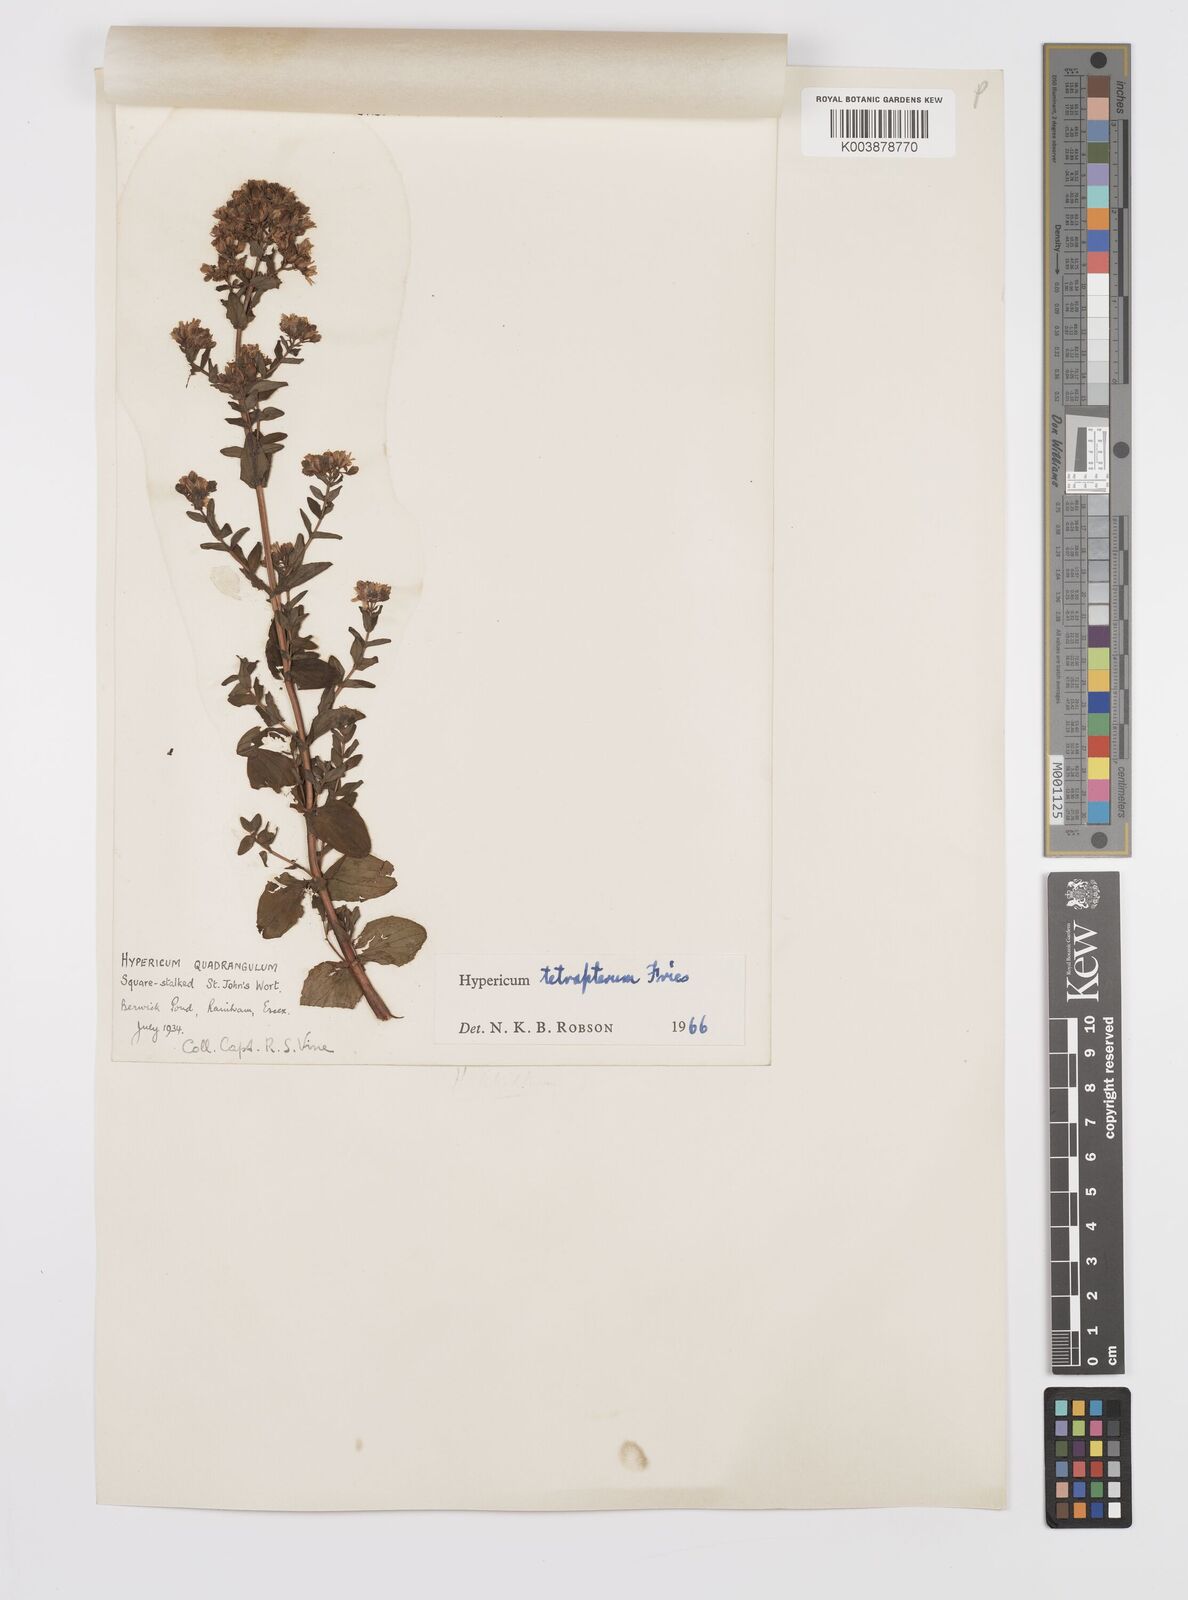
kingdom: Plantae
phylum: Tracheophyta
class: Magnoliopsida
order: Malpighiales
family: Hypericaceae
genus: Hypericum
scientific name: Hypericum tetrapterum
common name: Square-stalked st. john's-wort
